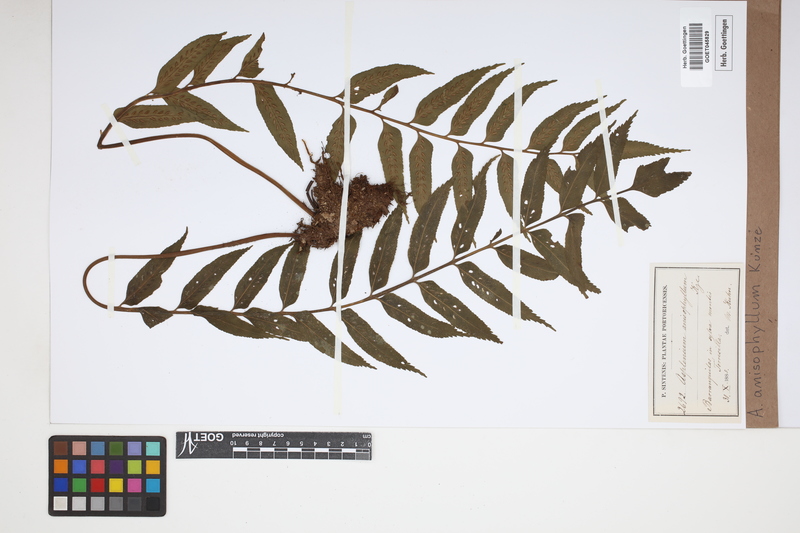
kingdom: Plantae
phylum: Tracheophyta
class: Polypodiopsida
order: Polypodiales
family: Aspleniaceae
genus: Asplenium
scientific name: Asplenium anisophyllum
